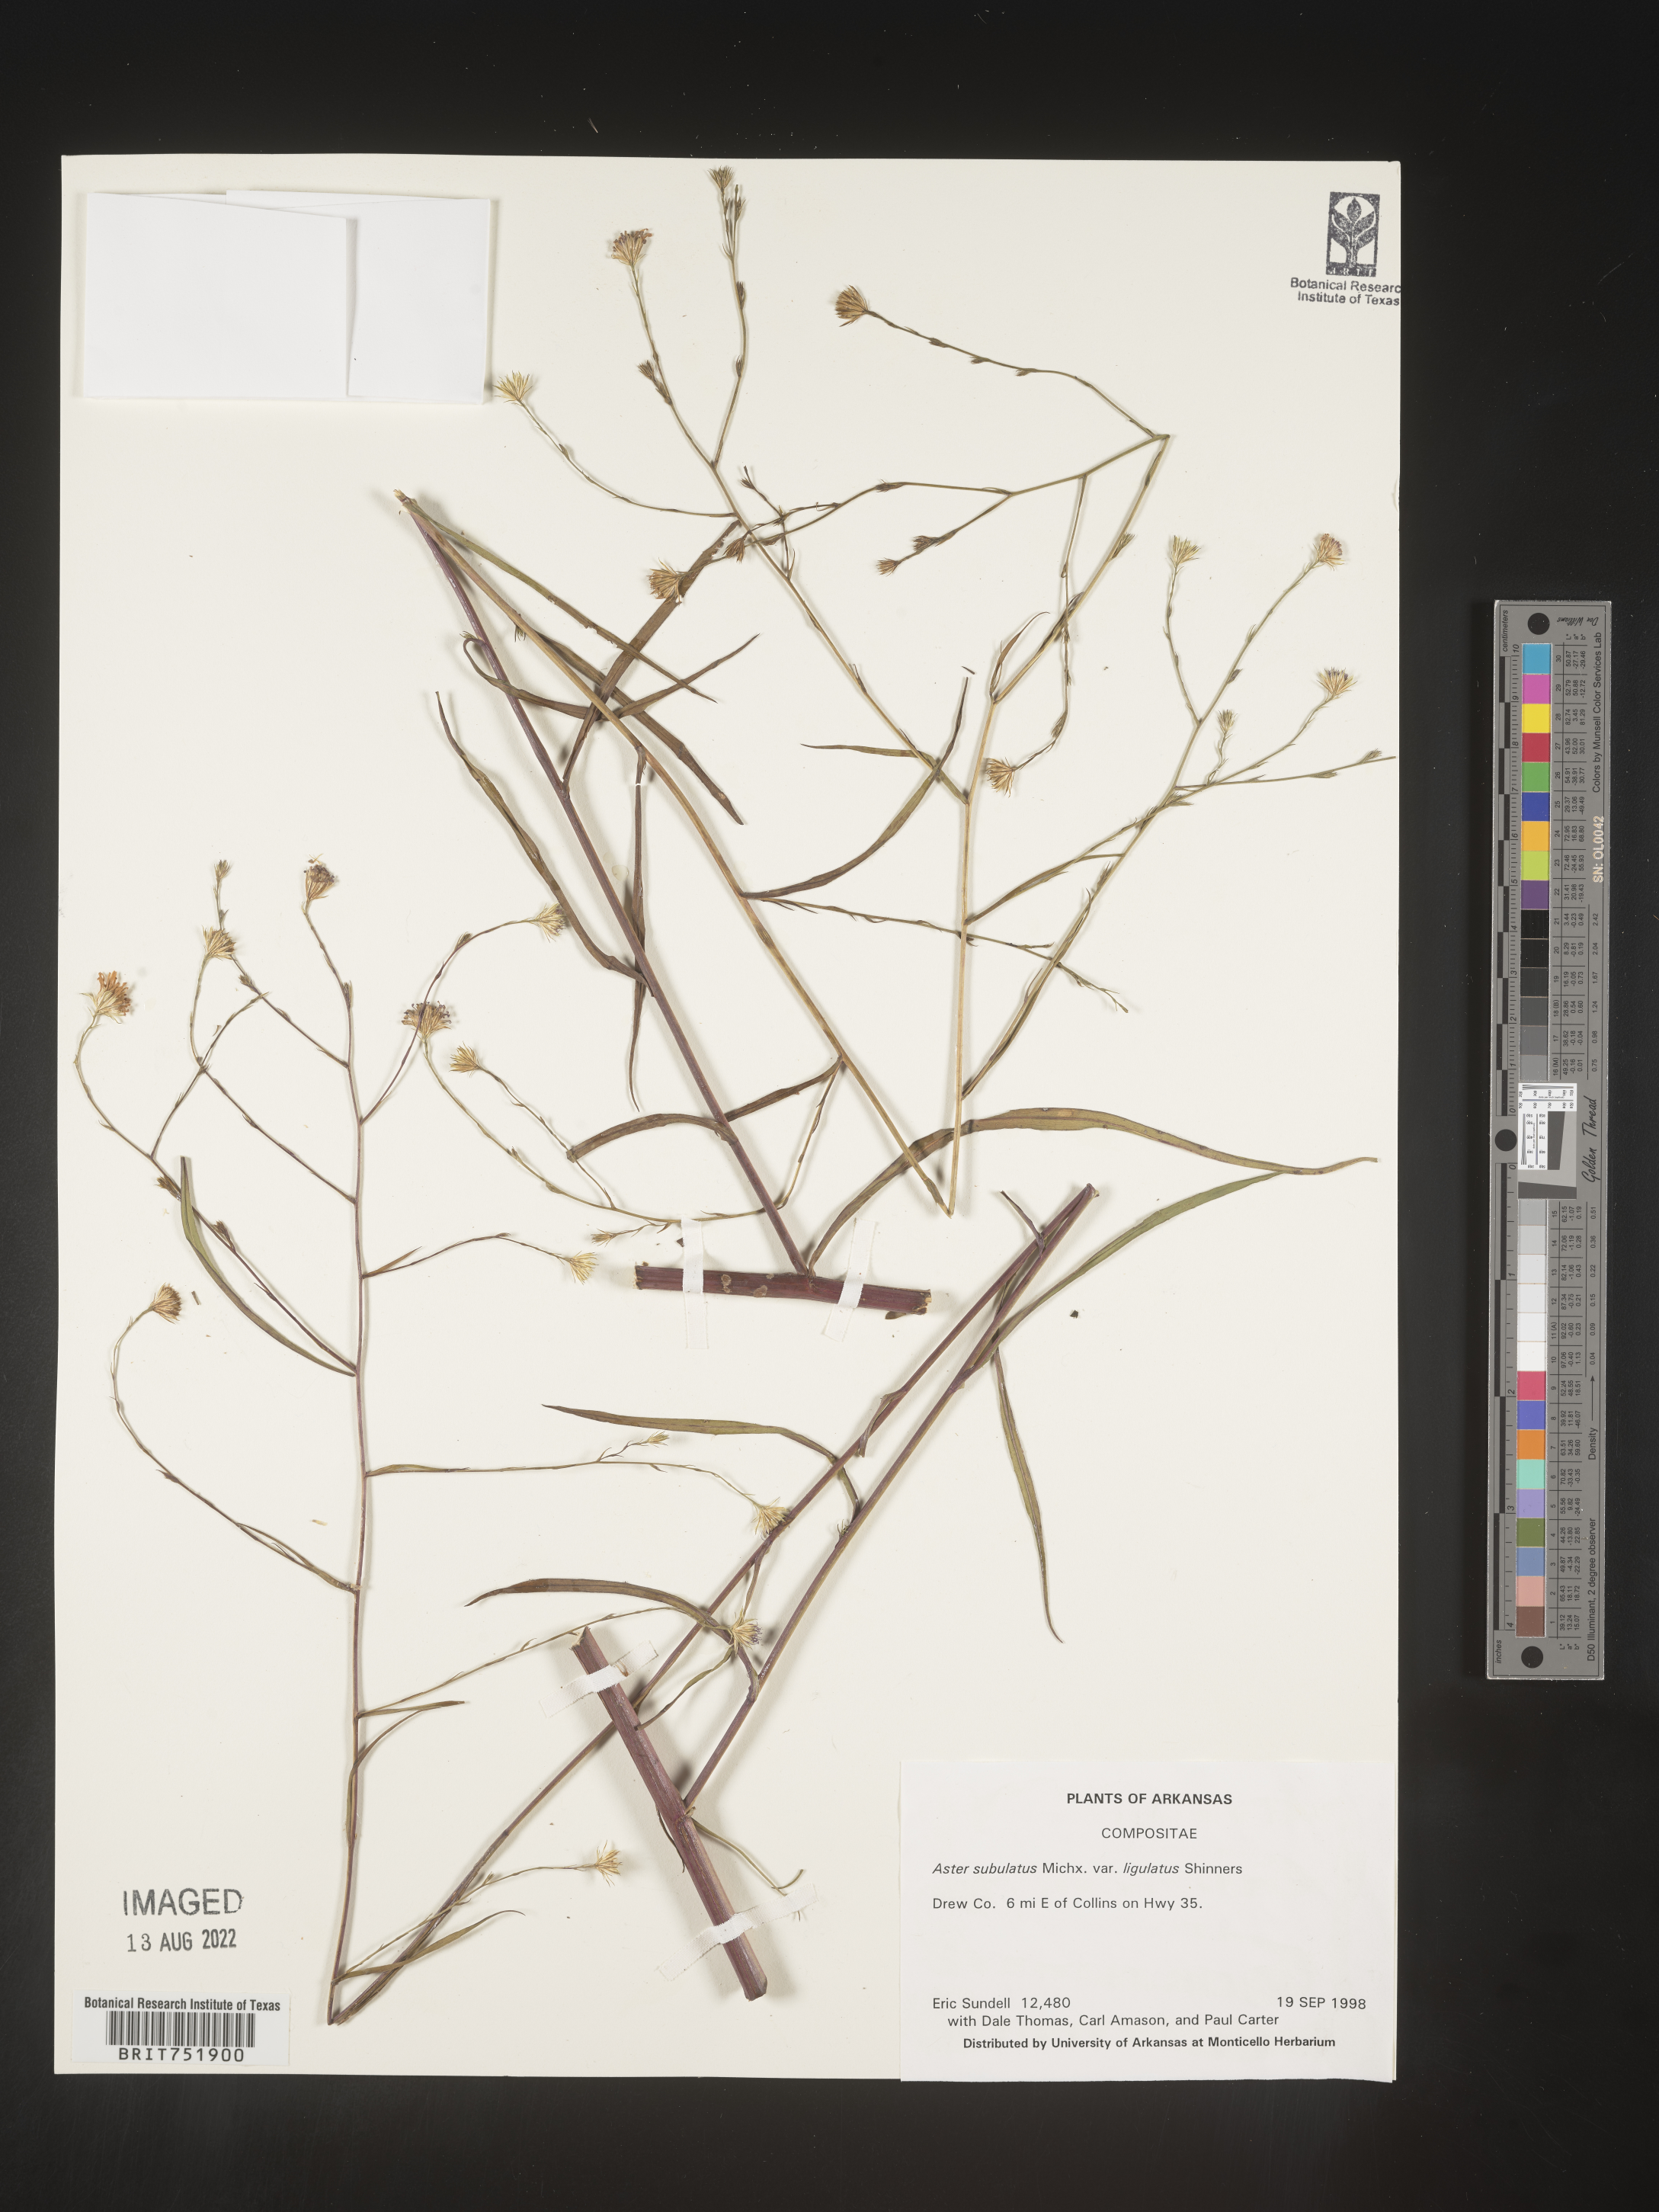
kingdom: Plantae
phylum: Tracheophyta
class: Magnoliopsida
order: Asterales
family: Asteraceae
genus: Symphyotrichum
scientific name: Symphyotrichum divaricatum
